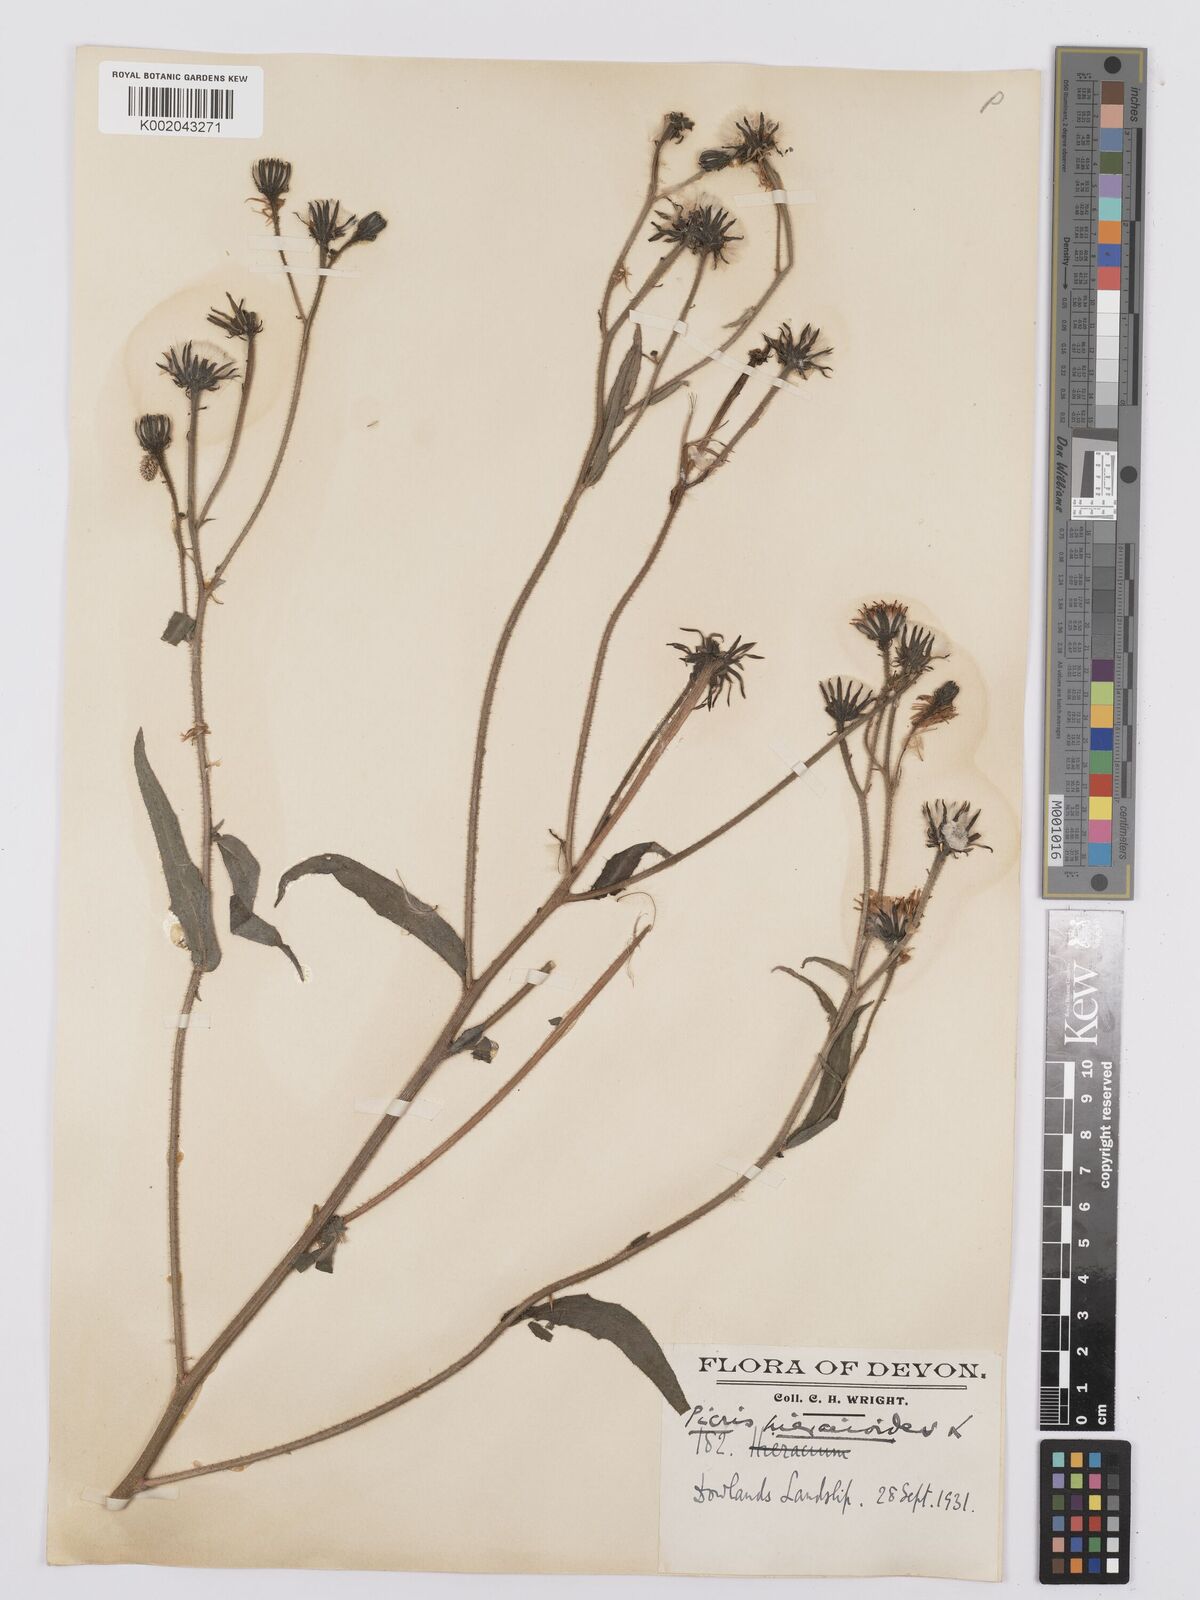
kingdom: Plantae
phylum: Tracheophyta
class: Magnoliopsida
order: Asterales
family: Asteraceae
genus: Picris
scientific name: Picris hieracioides
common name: Hawkweed oxtongue
